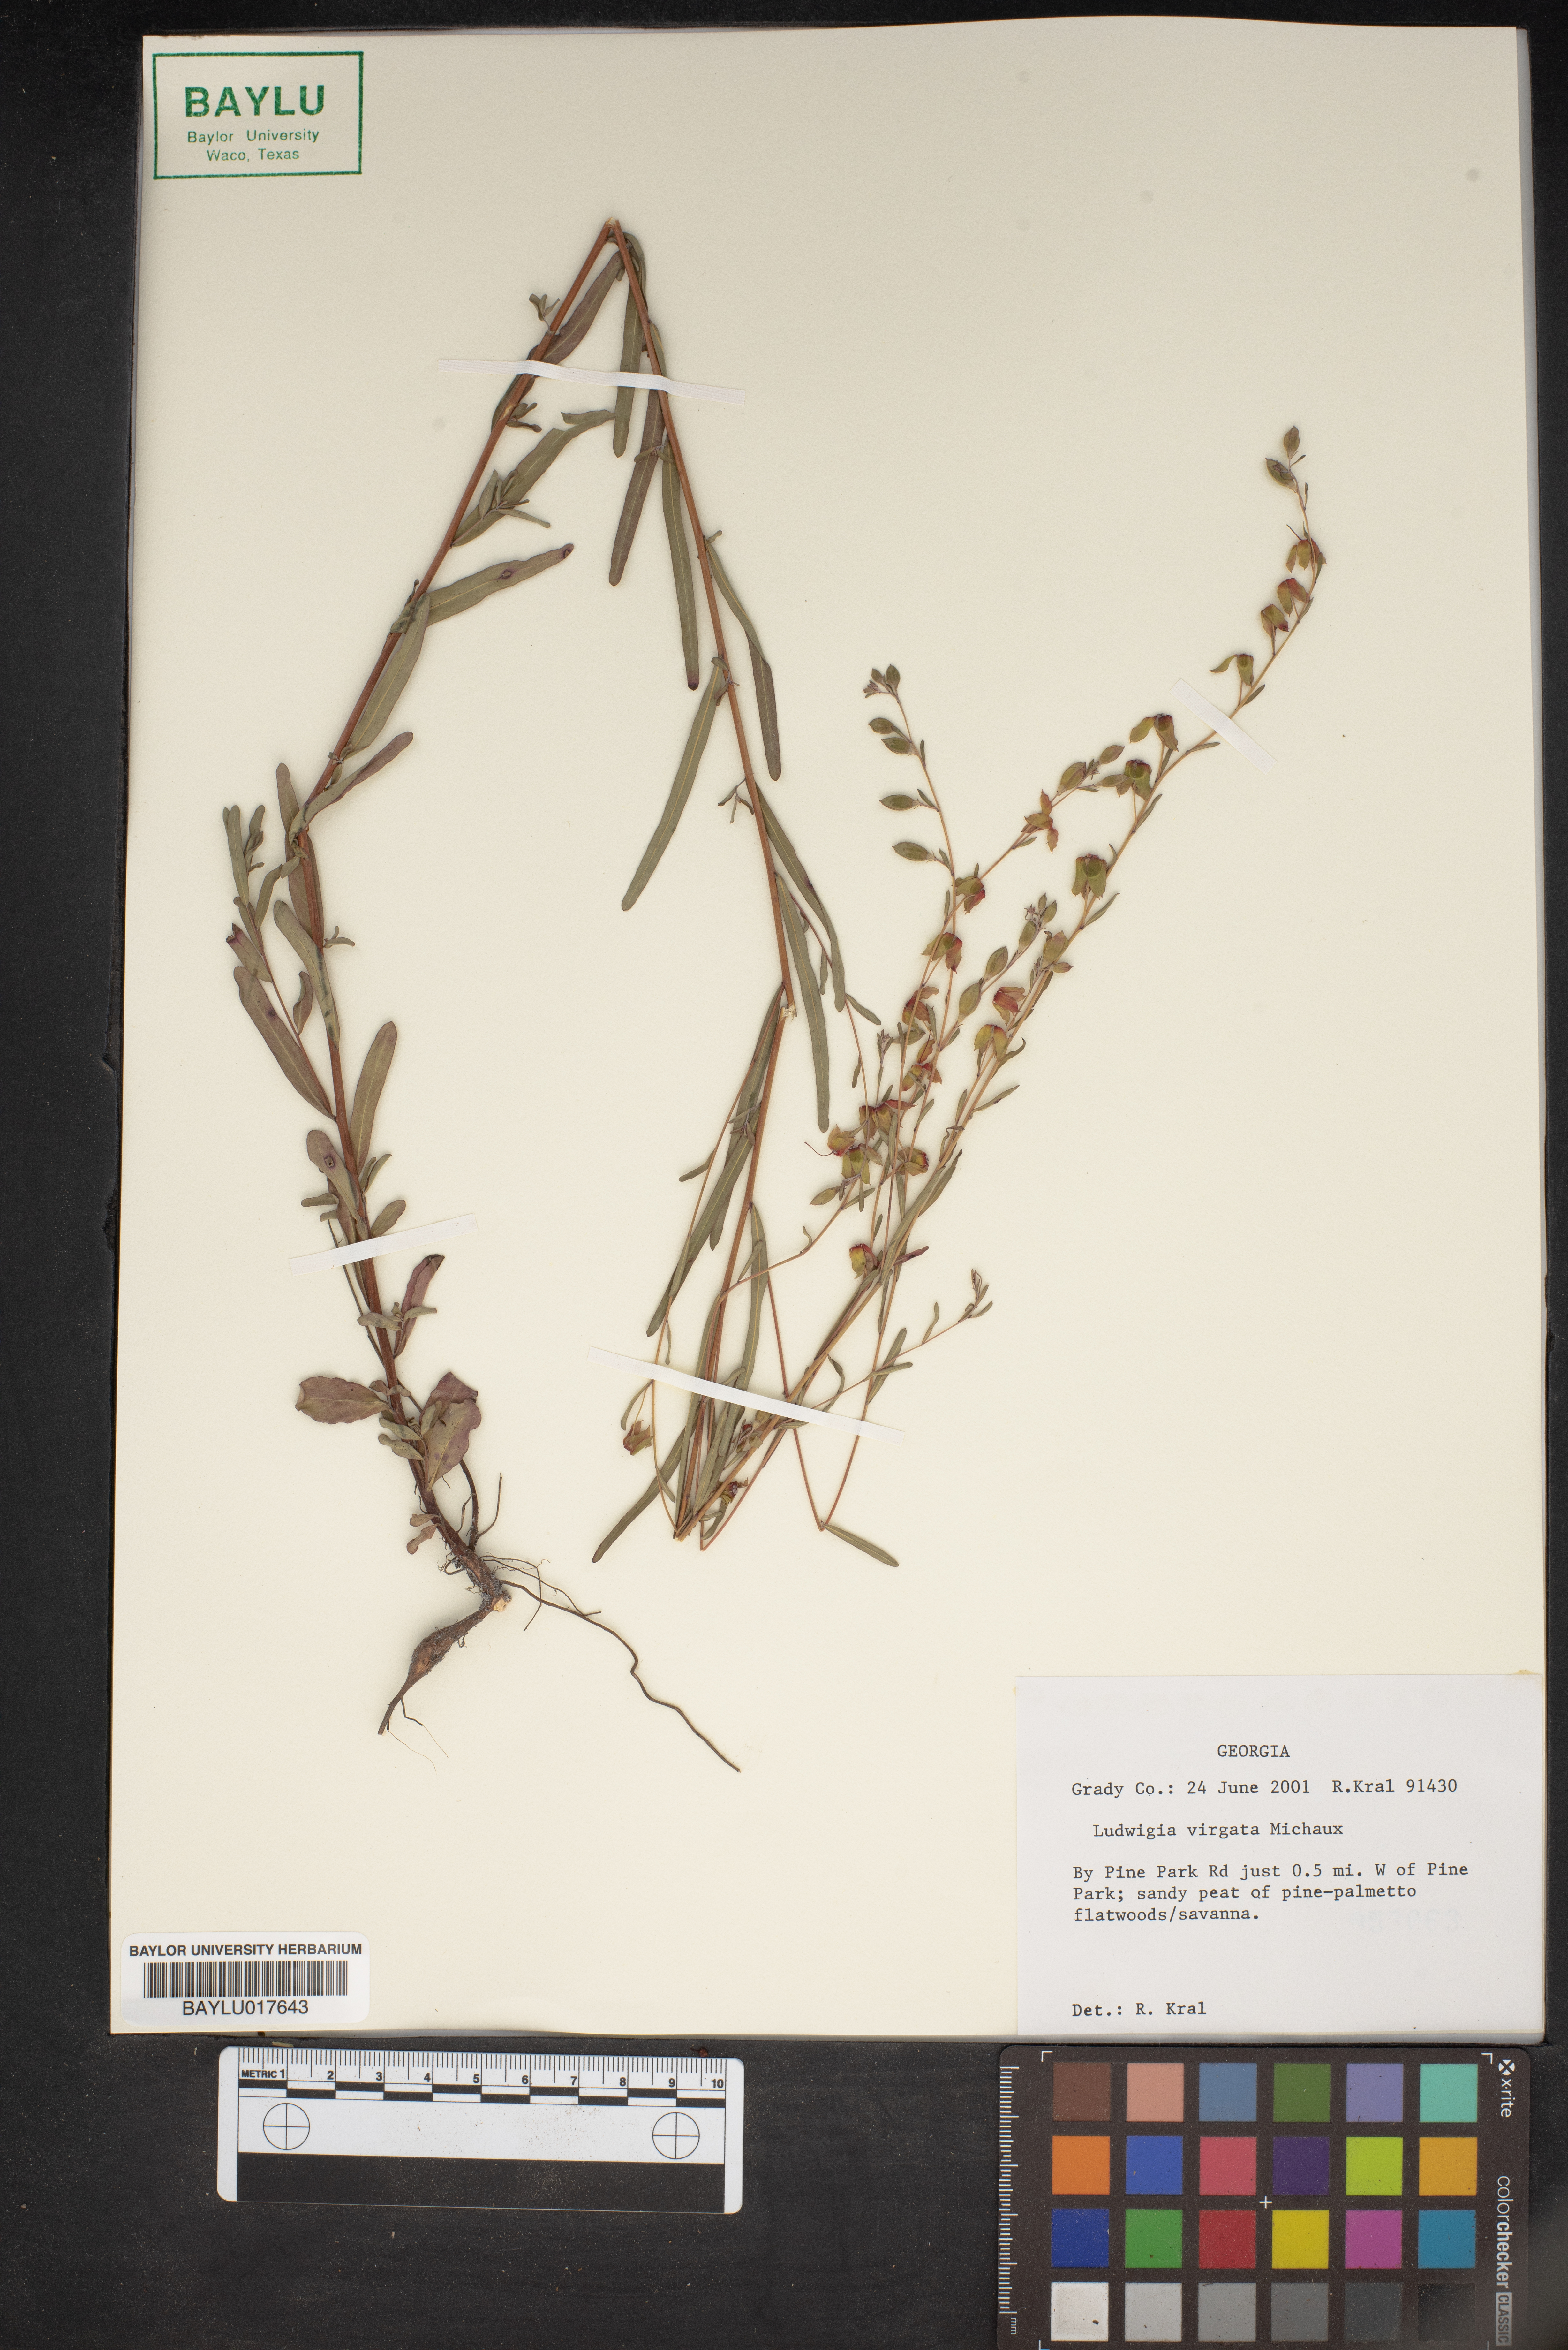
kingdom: Plantae
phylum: Tracheophyta
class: Magnoliopsida
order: Myrtales
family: Onagraceae
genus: Ludwigia
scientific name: Ludwigia virgata
